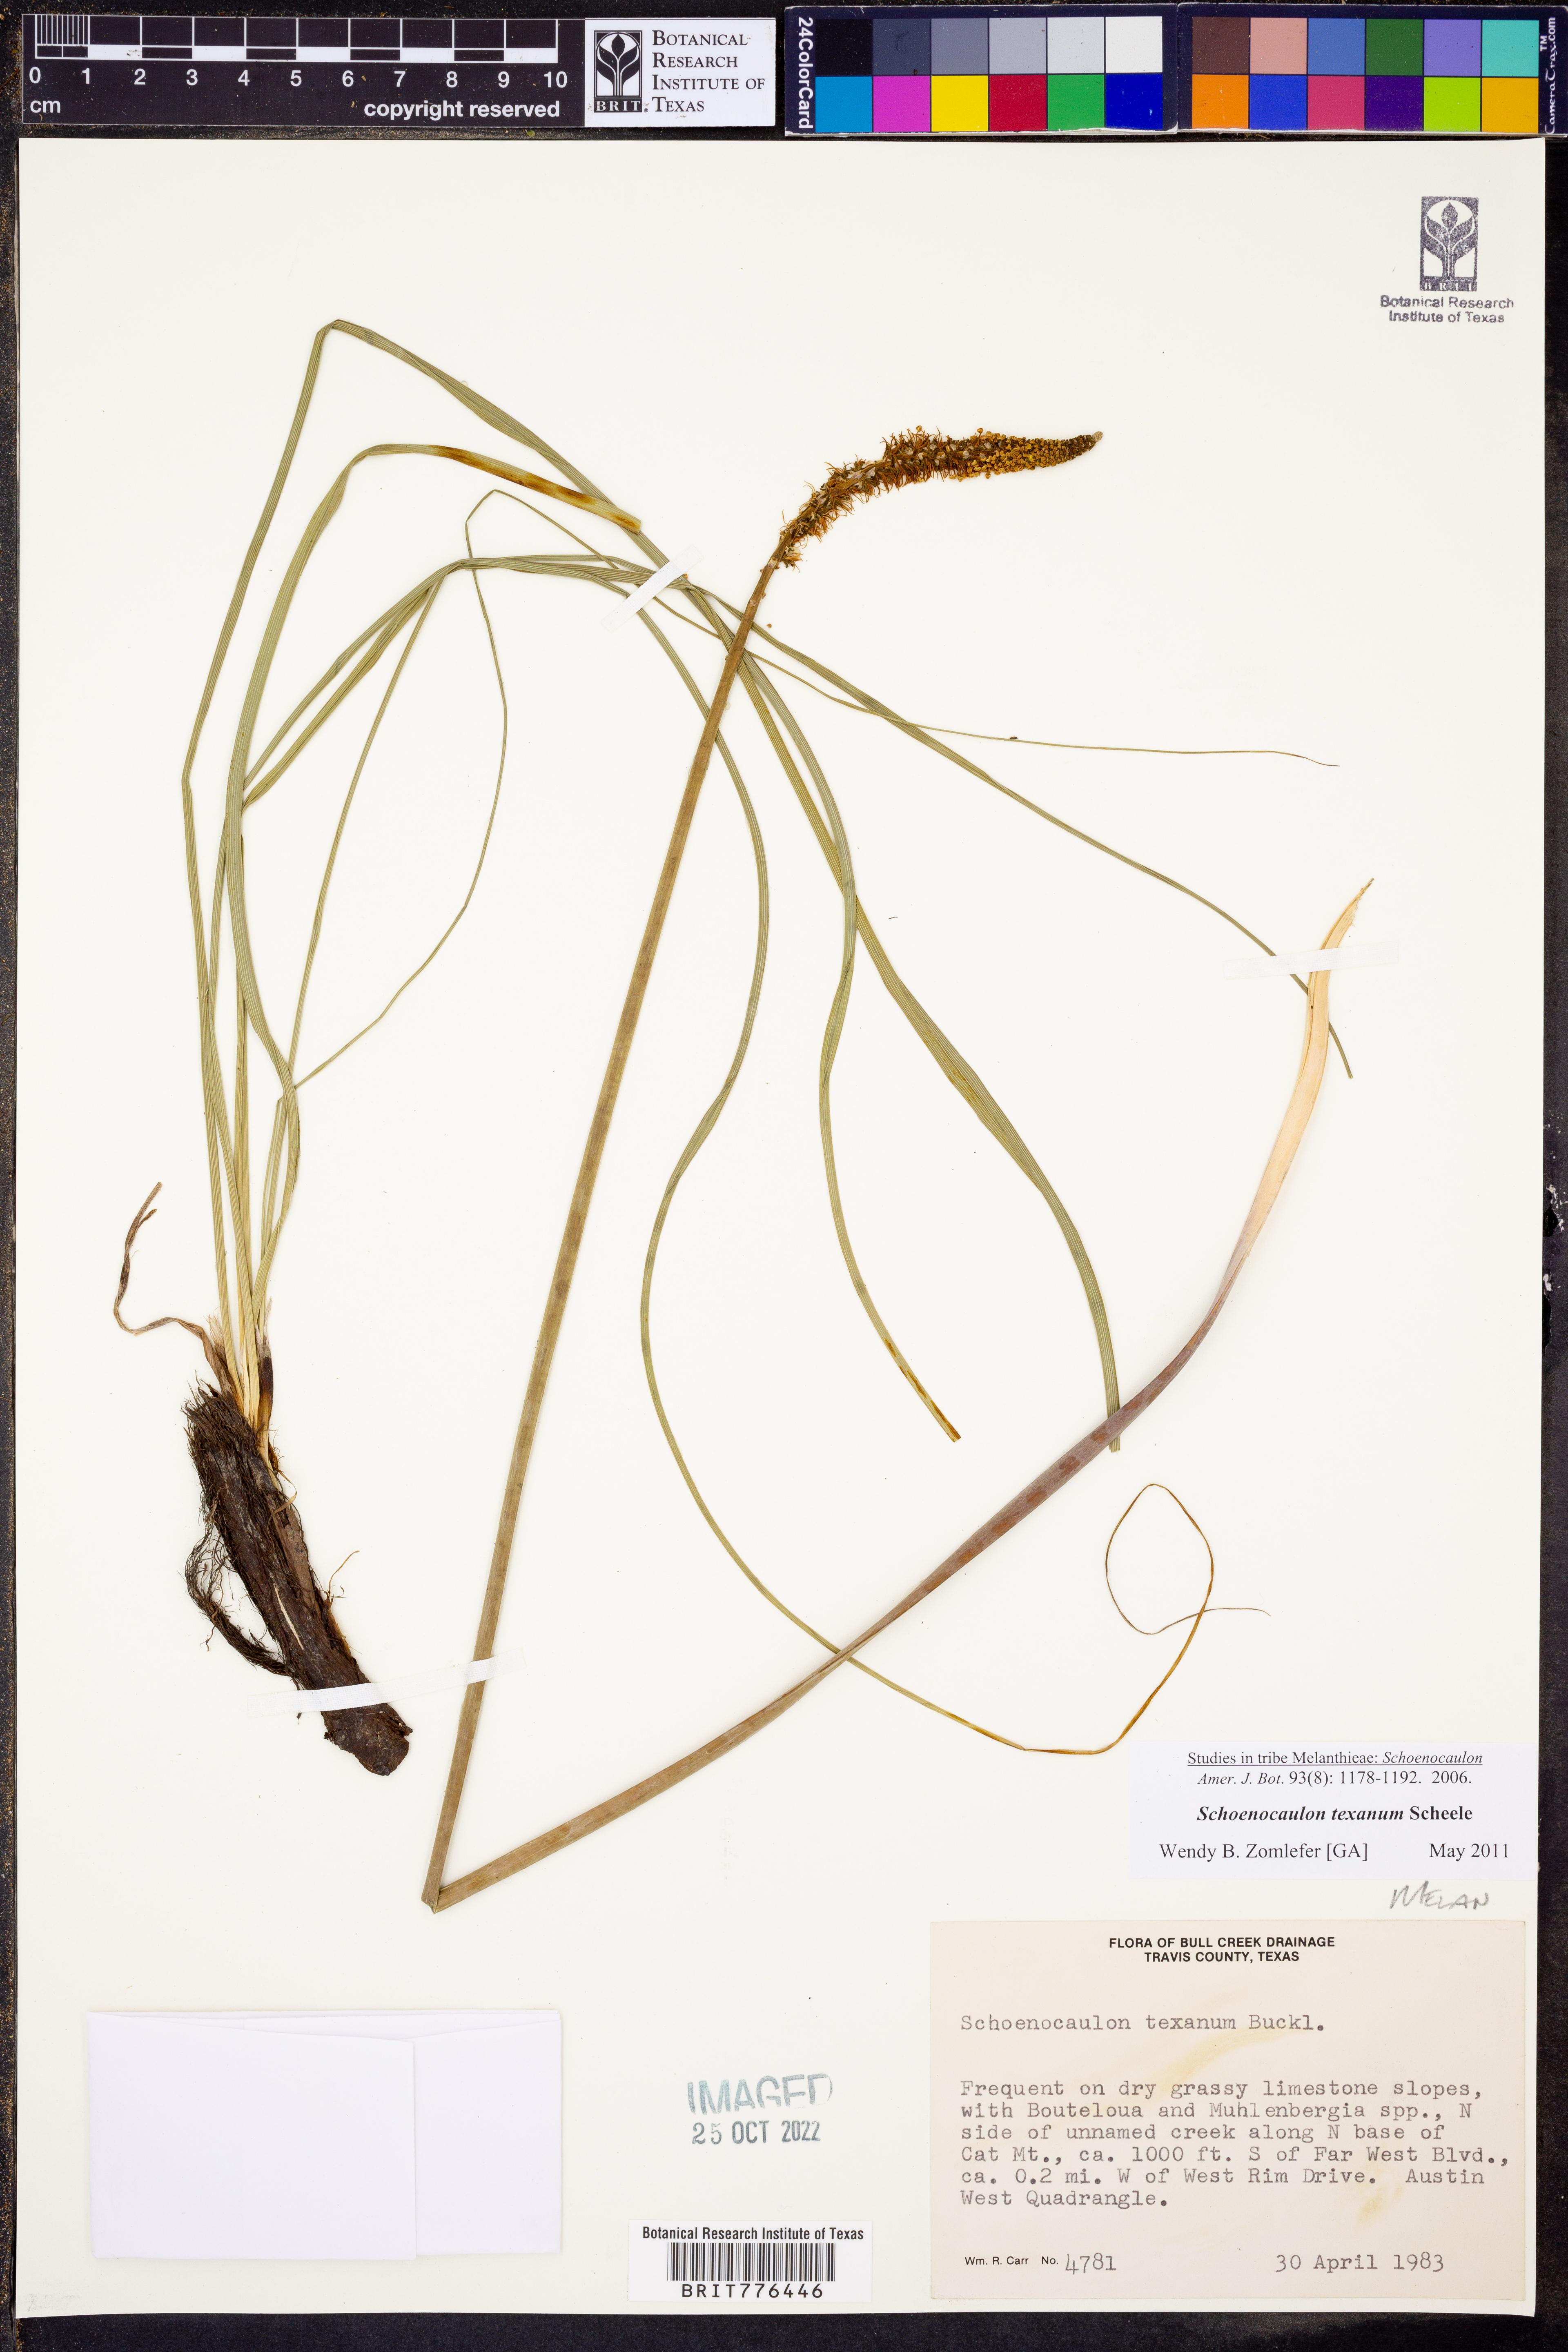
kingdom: Plantae
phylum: Tracheophyta
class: Liliopsida
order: Liliales
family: Melanthiaceae
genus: Schoenocaulon
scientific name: Schoenocaulon texanum
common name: Texas feather-shank
